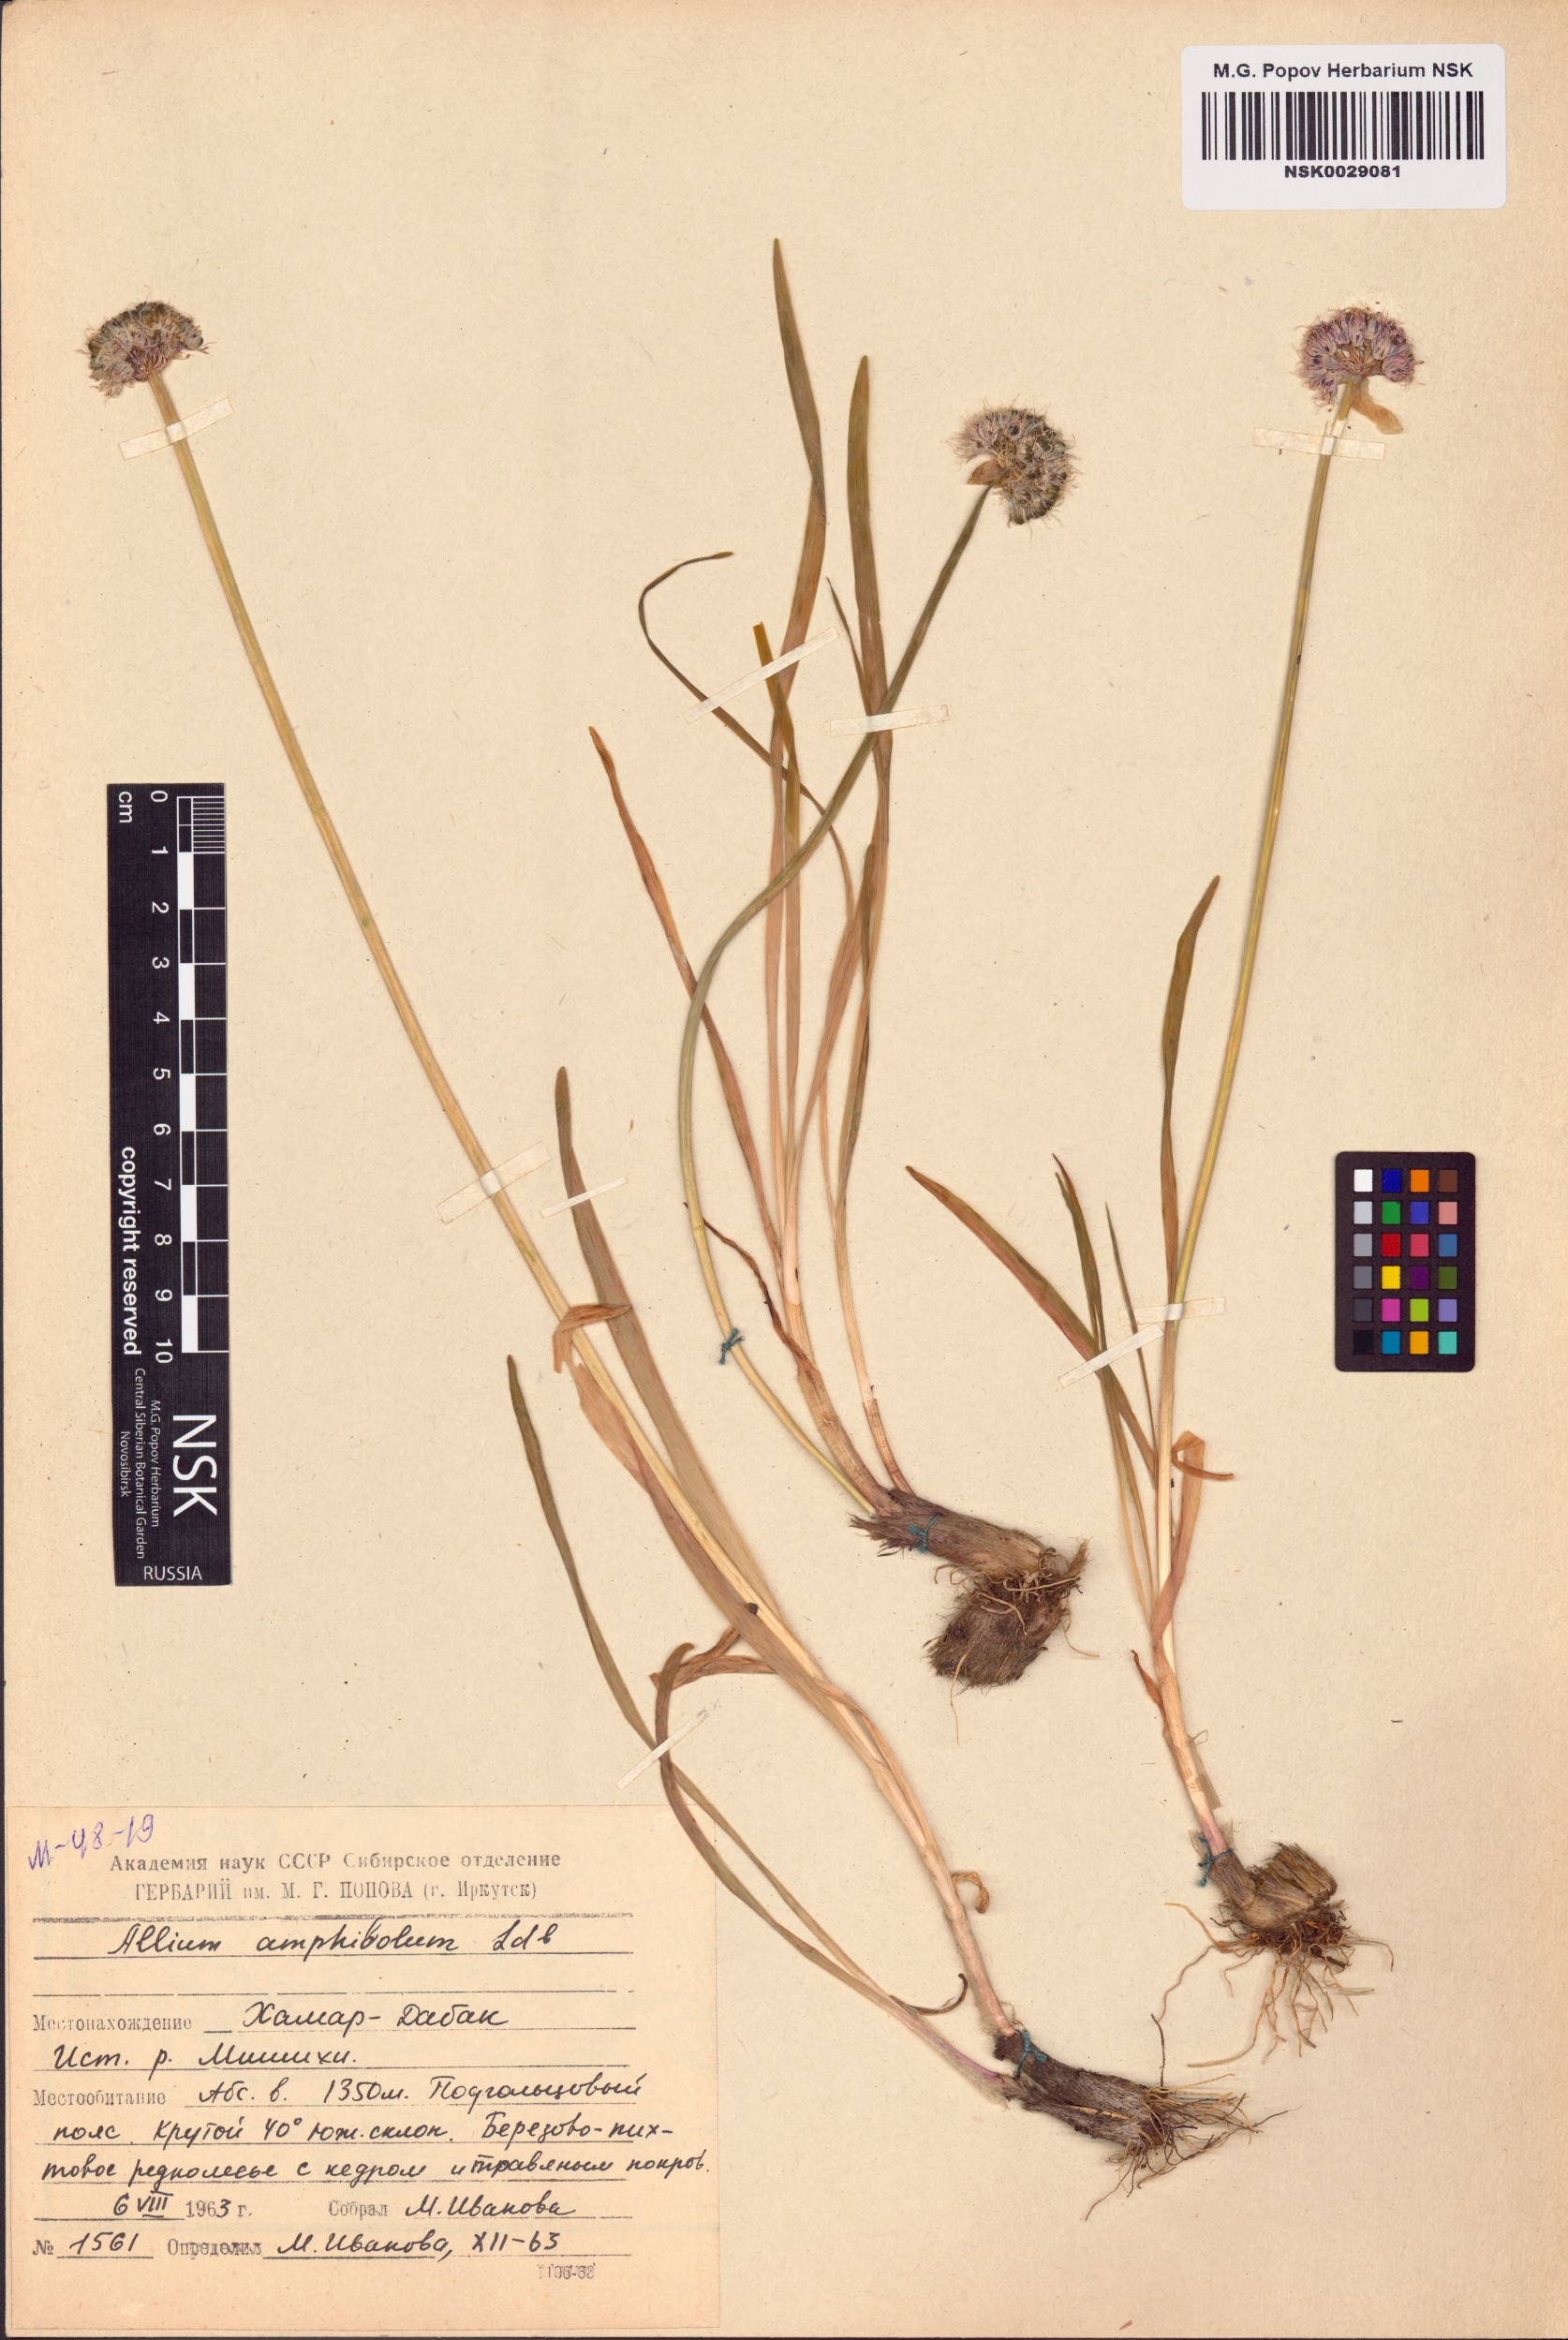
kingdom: Plantae
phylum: Tracheophyta
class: Liliopsida
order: Asparagales
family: Amaryllidaceae
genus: Allium
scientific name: Allium amphibolum
